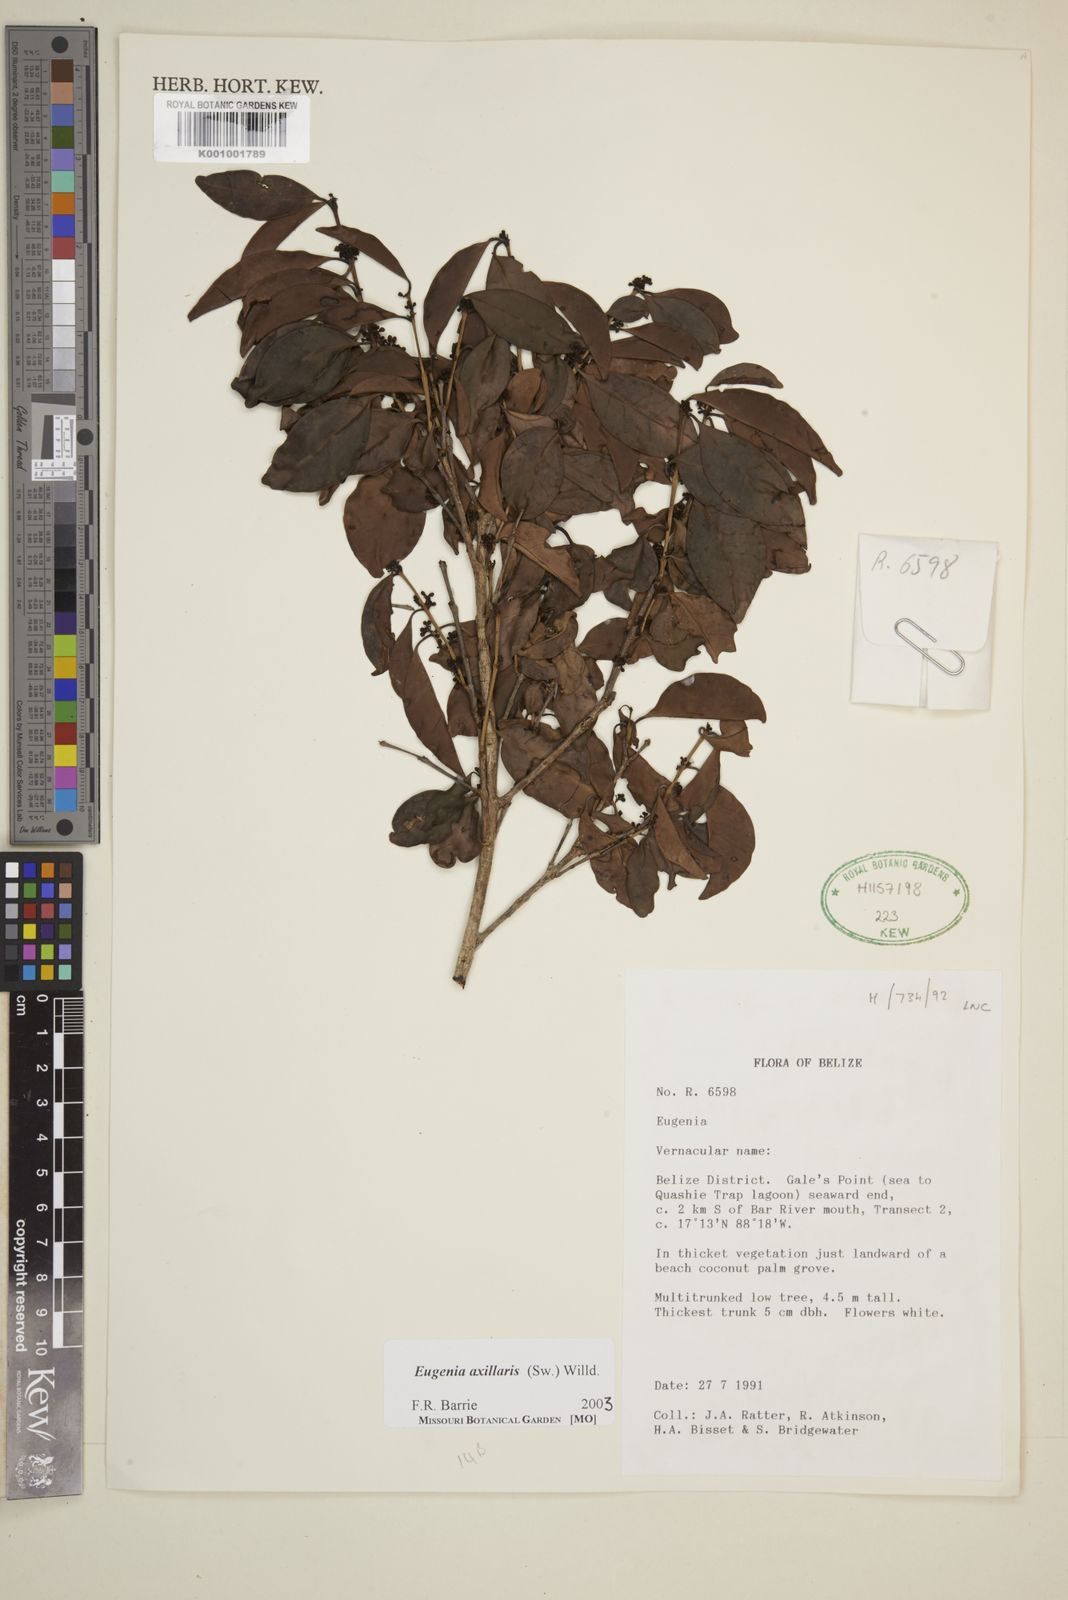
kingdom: Plantae
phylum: Tracheophyta
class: Magnoliopsida
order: Myrtales
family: Myrtaceae
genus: Eugenia
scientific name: Eugenia axillaris
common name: Choaky berry
